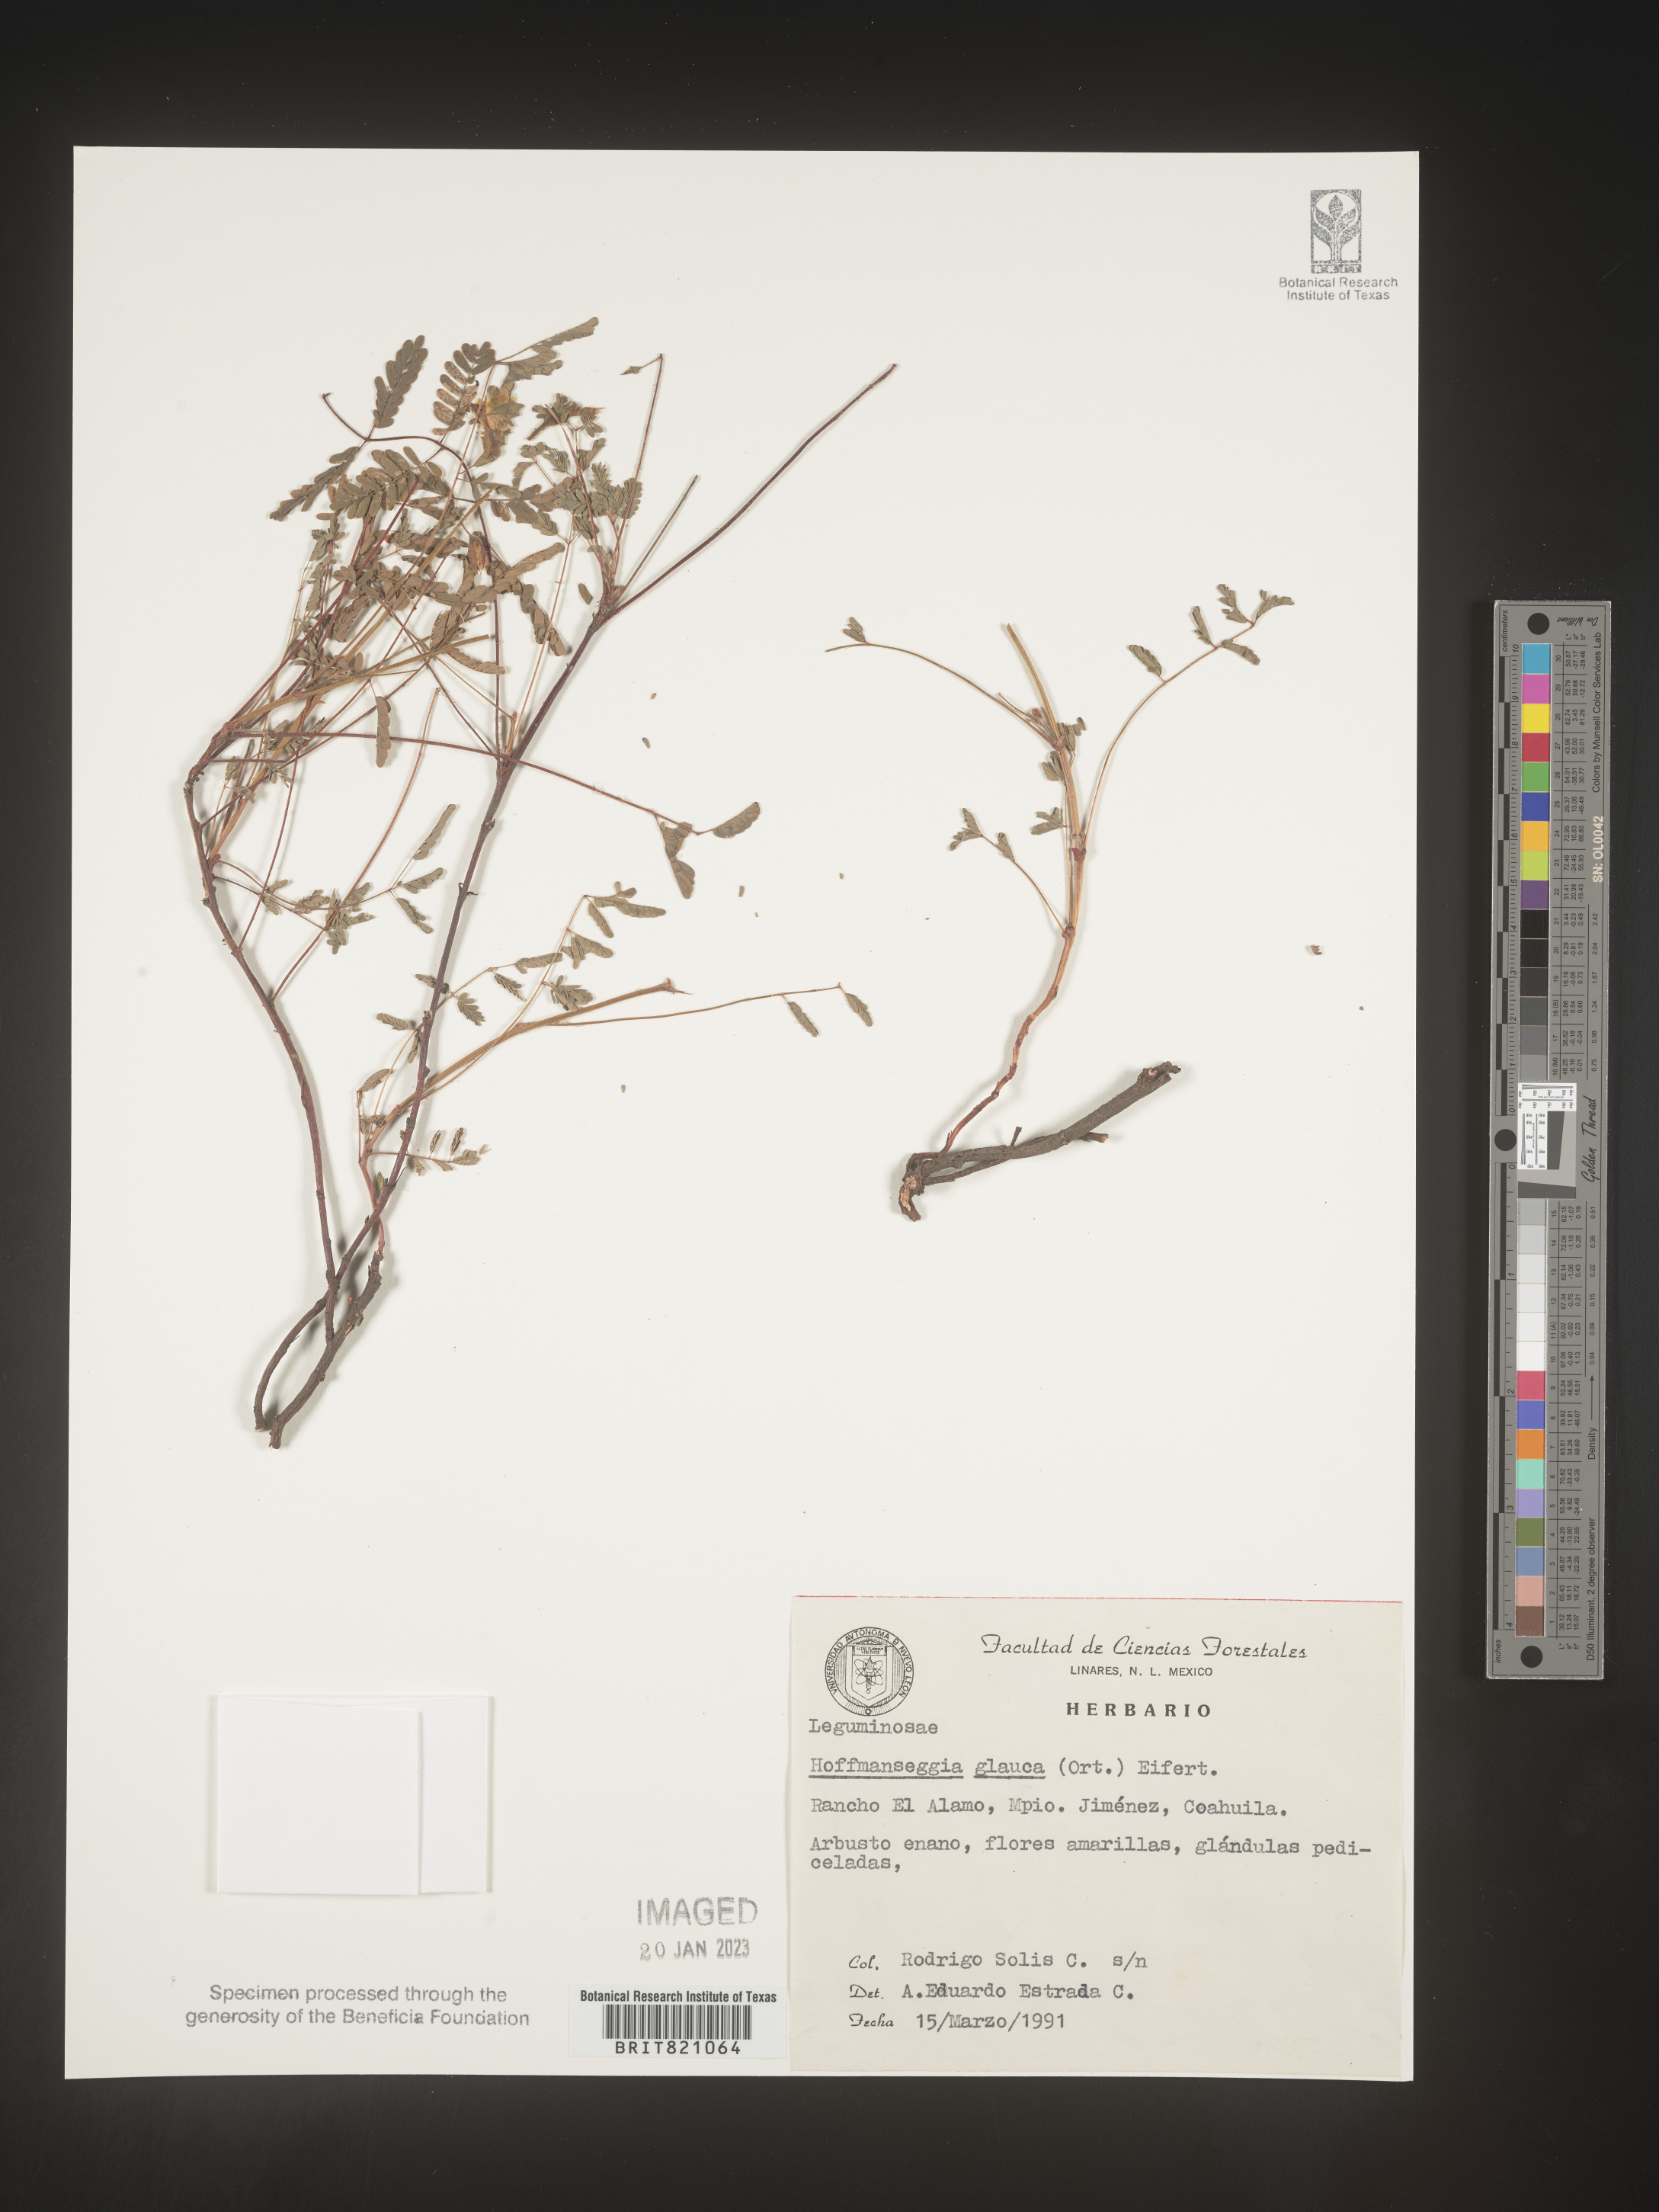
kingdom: Plantae
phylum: Tracheophyta
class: Magnoliopsida
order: Fabales
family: Fabaceae
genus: Hoffmannseggia
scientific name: Hoffmannseggia
